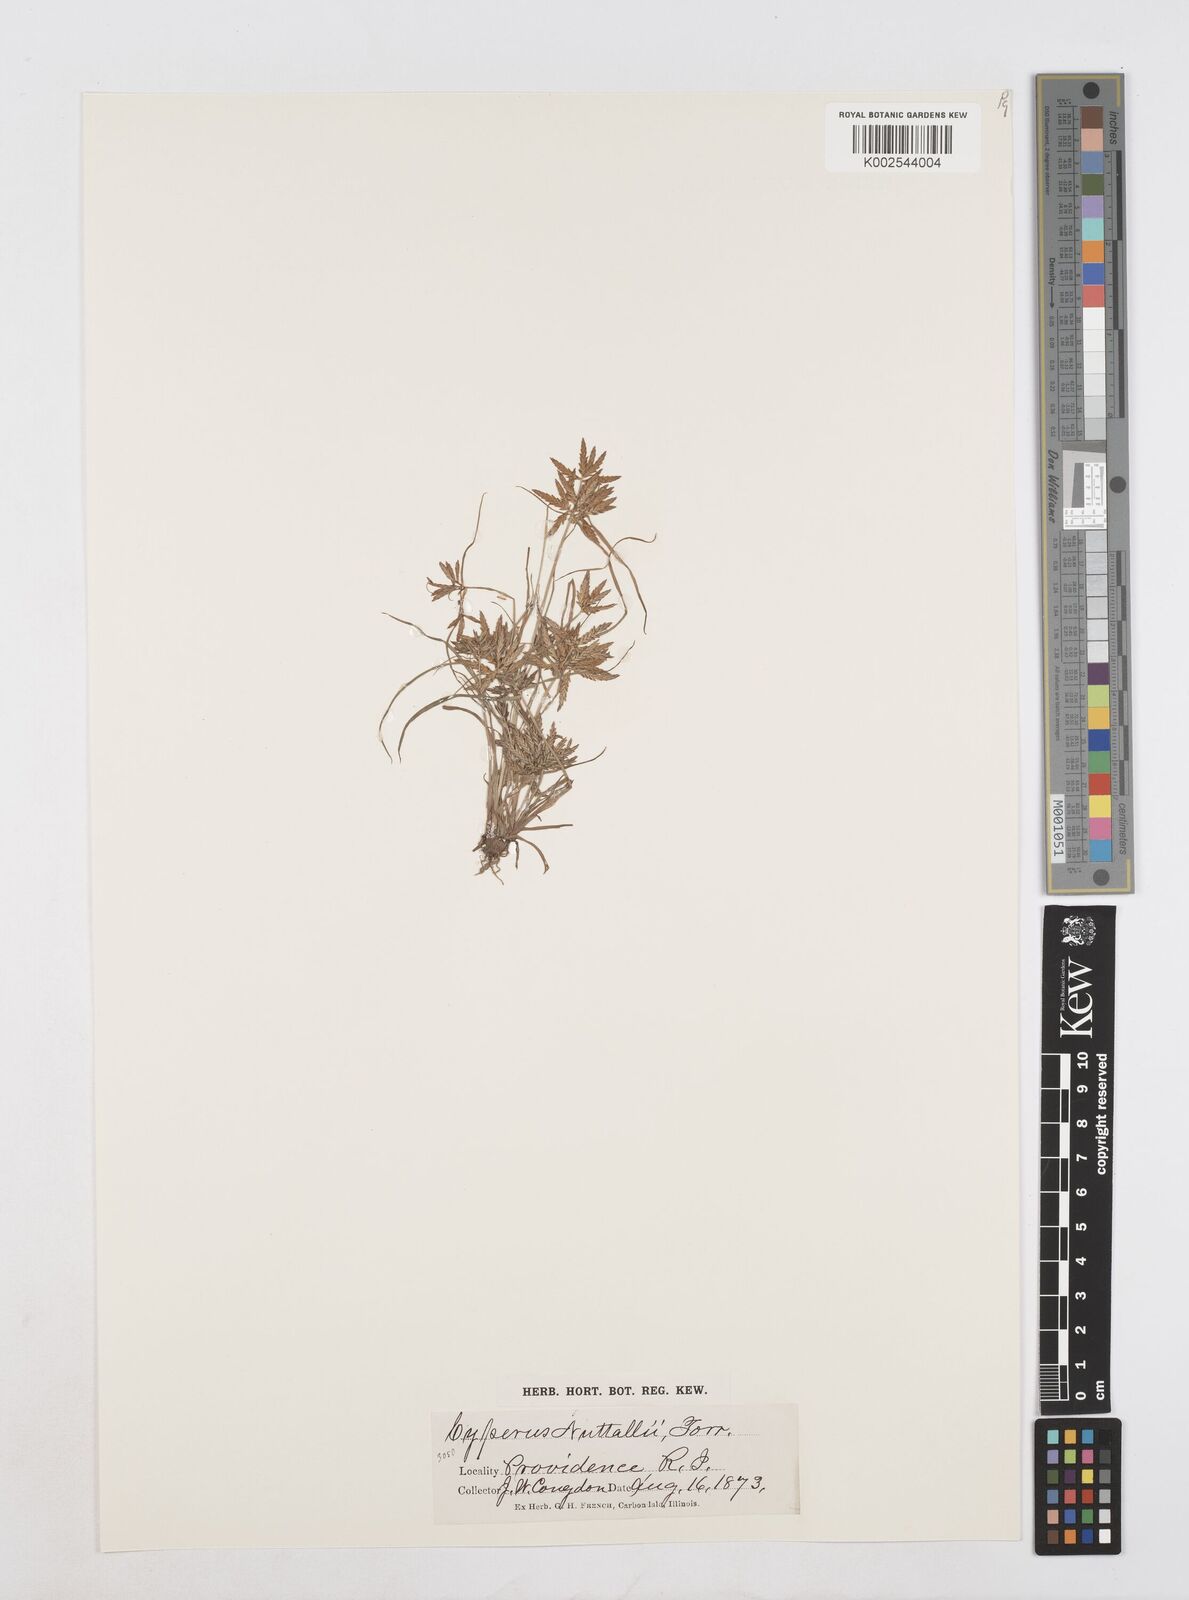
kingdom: Plantae
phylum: Tracheophyta
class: Liliopsida
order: Poales
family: Cyperaceae
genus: Cyperus
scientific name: Cyperus filicinus
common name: Fern flatsedge
